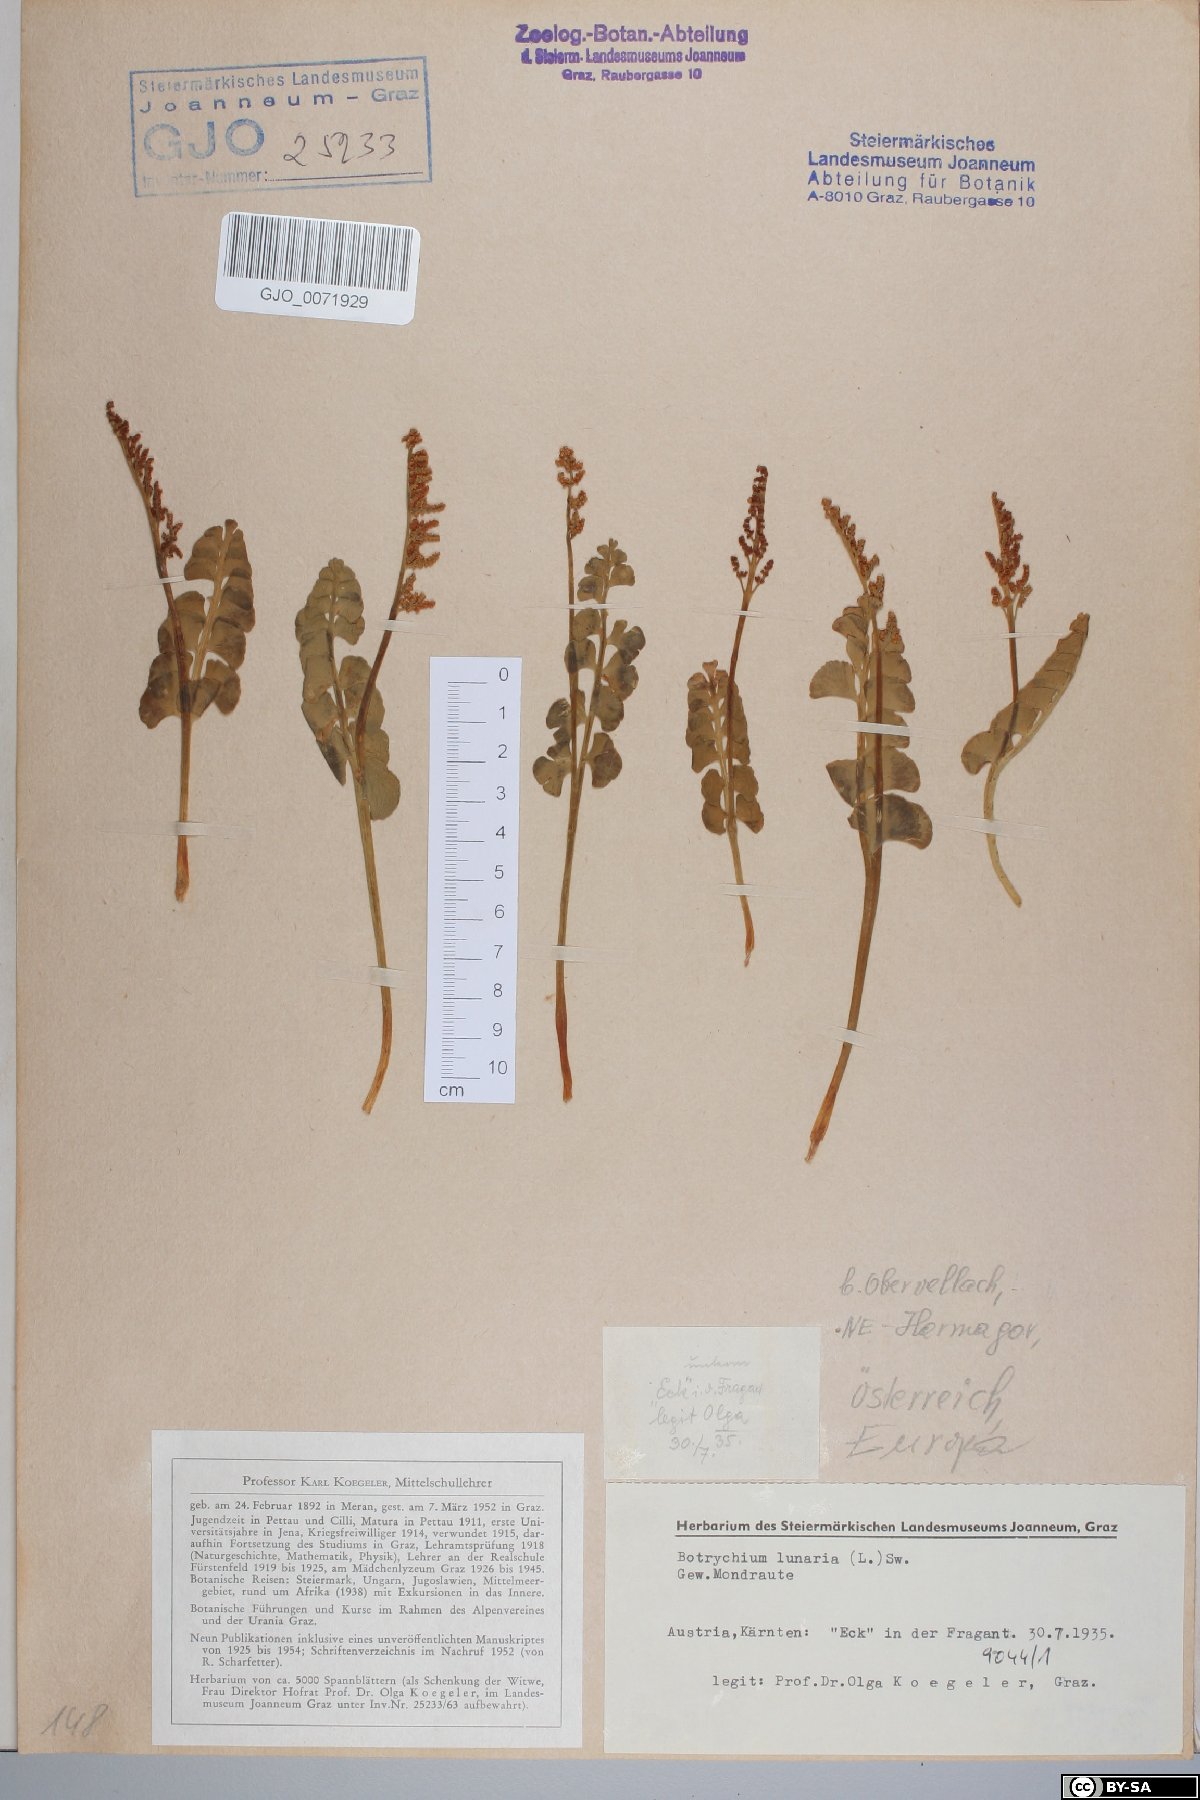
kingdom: Plantae
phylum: Tracheophyta
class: Polypodiopsida
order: Ophioglossales
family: Ophioglossaceae
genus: Botrychium
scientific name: Botrychium lunaria
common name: Moonwort
